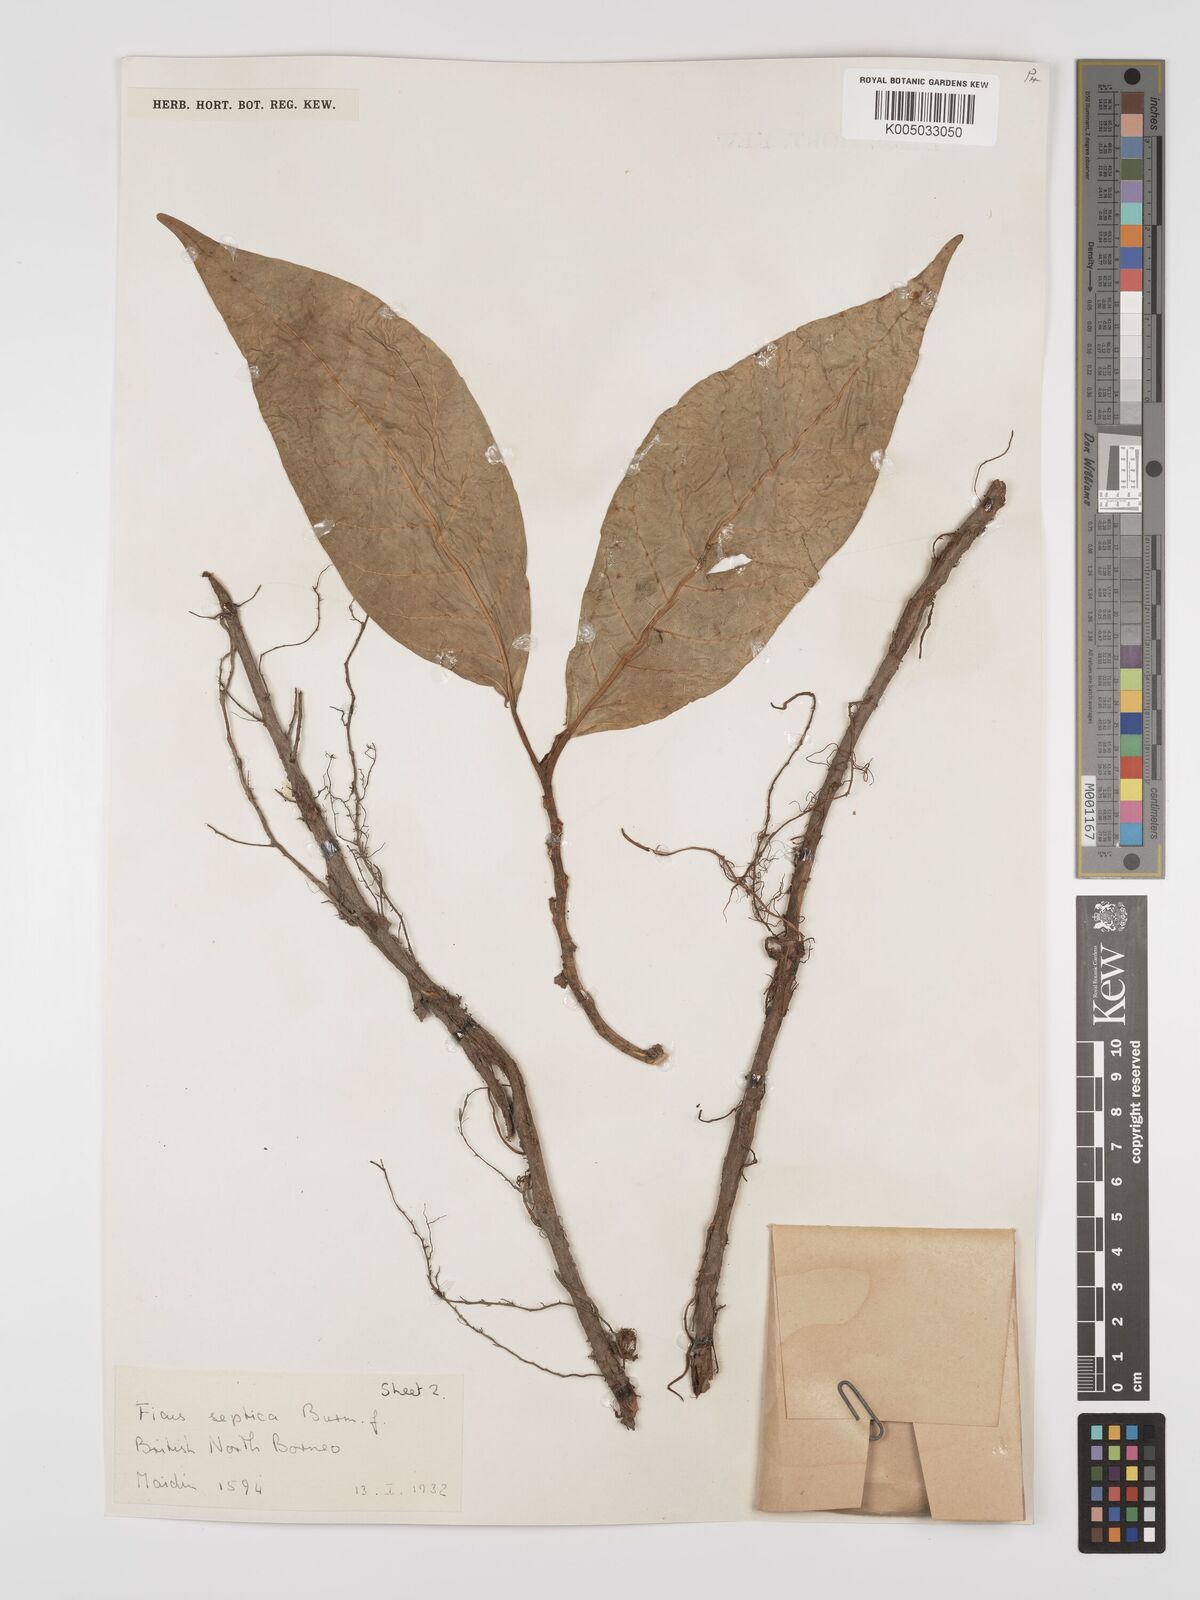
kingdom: Plantae
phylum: Tracheophyta
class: Magnoliopsida
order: Rosales
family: Moraceae
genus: Ficus
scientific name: Ficus septica
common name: Septic fig
